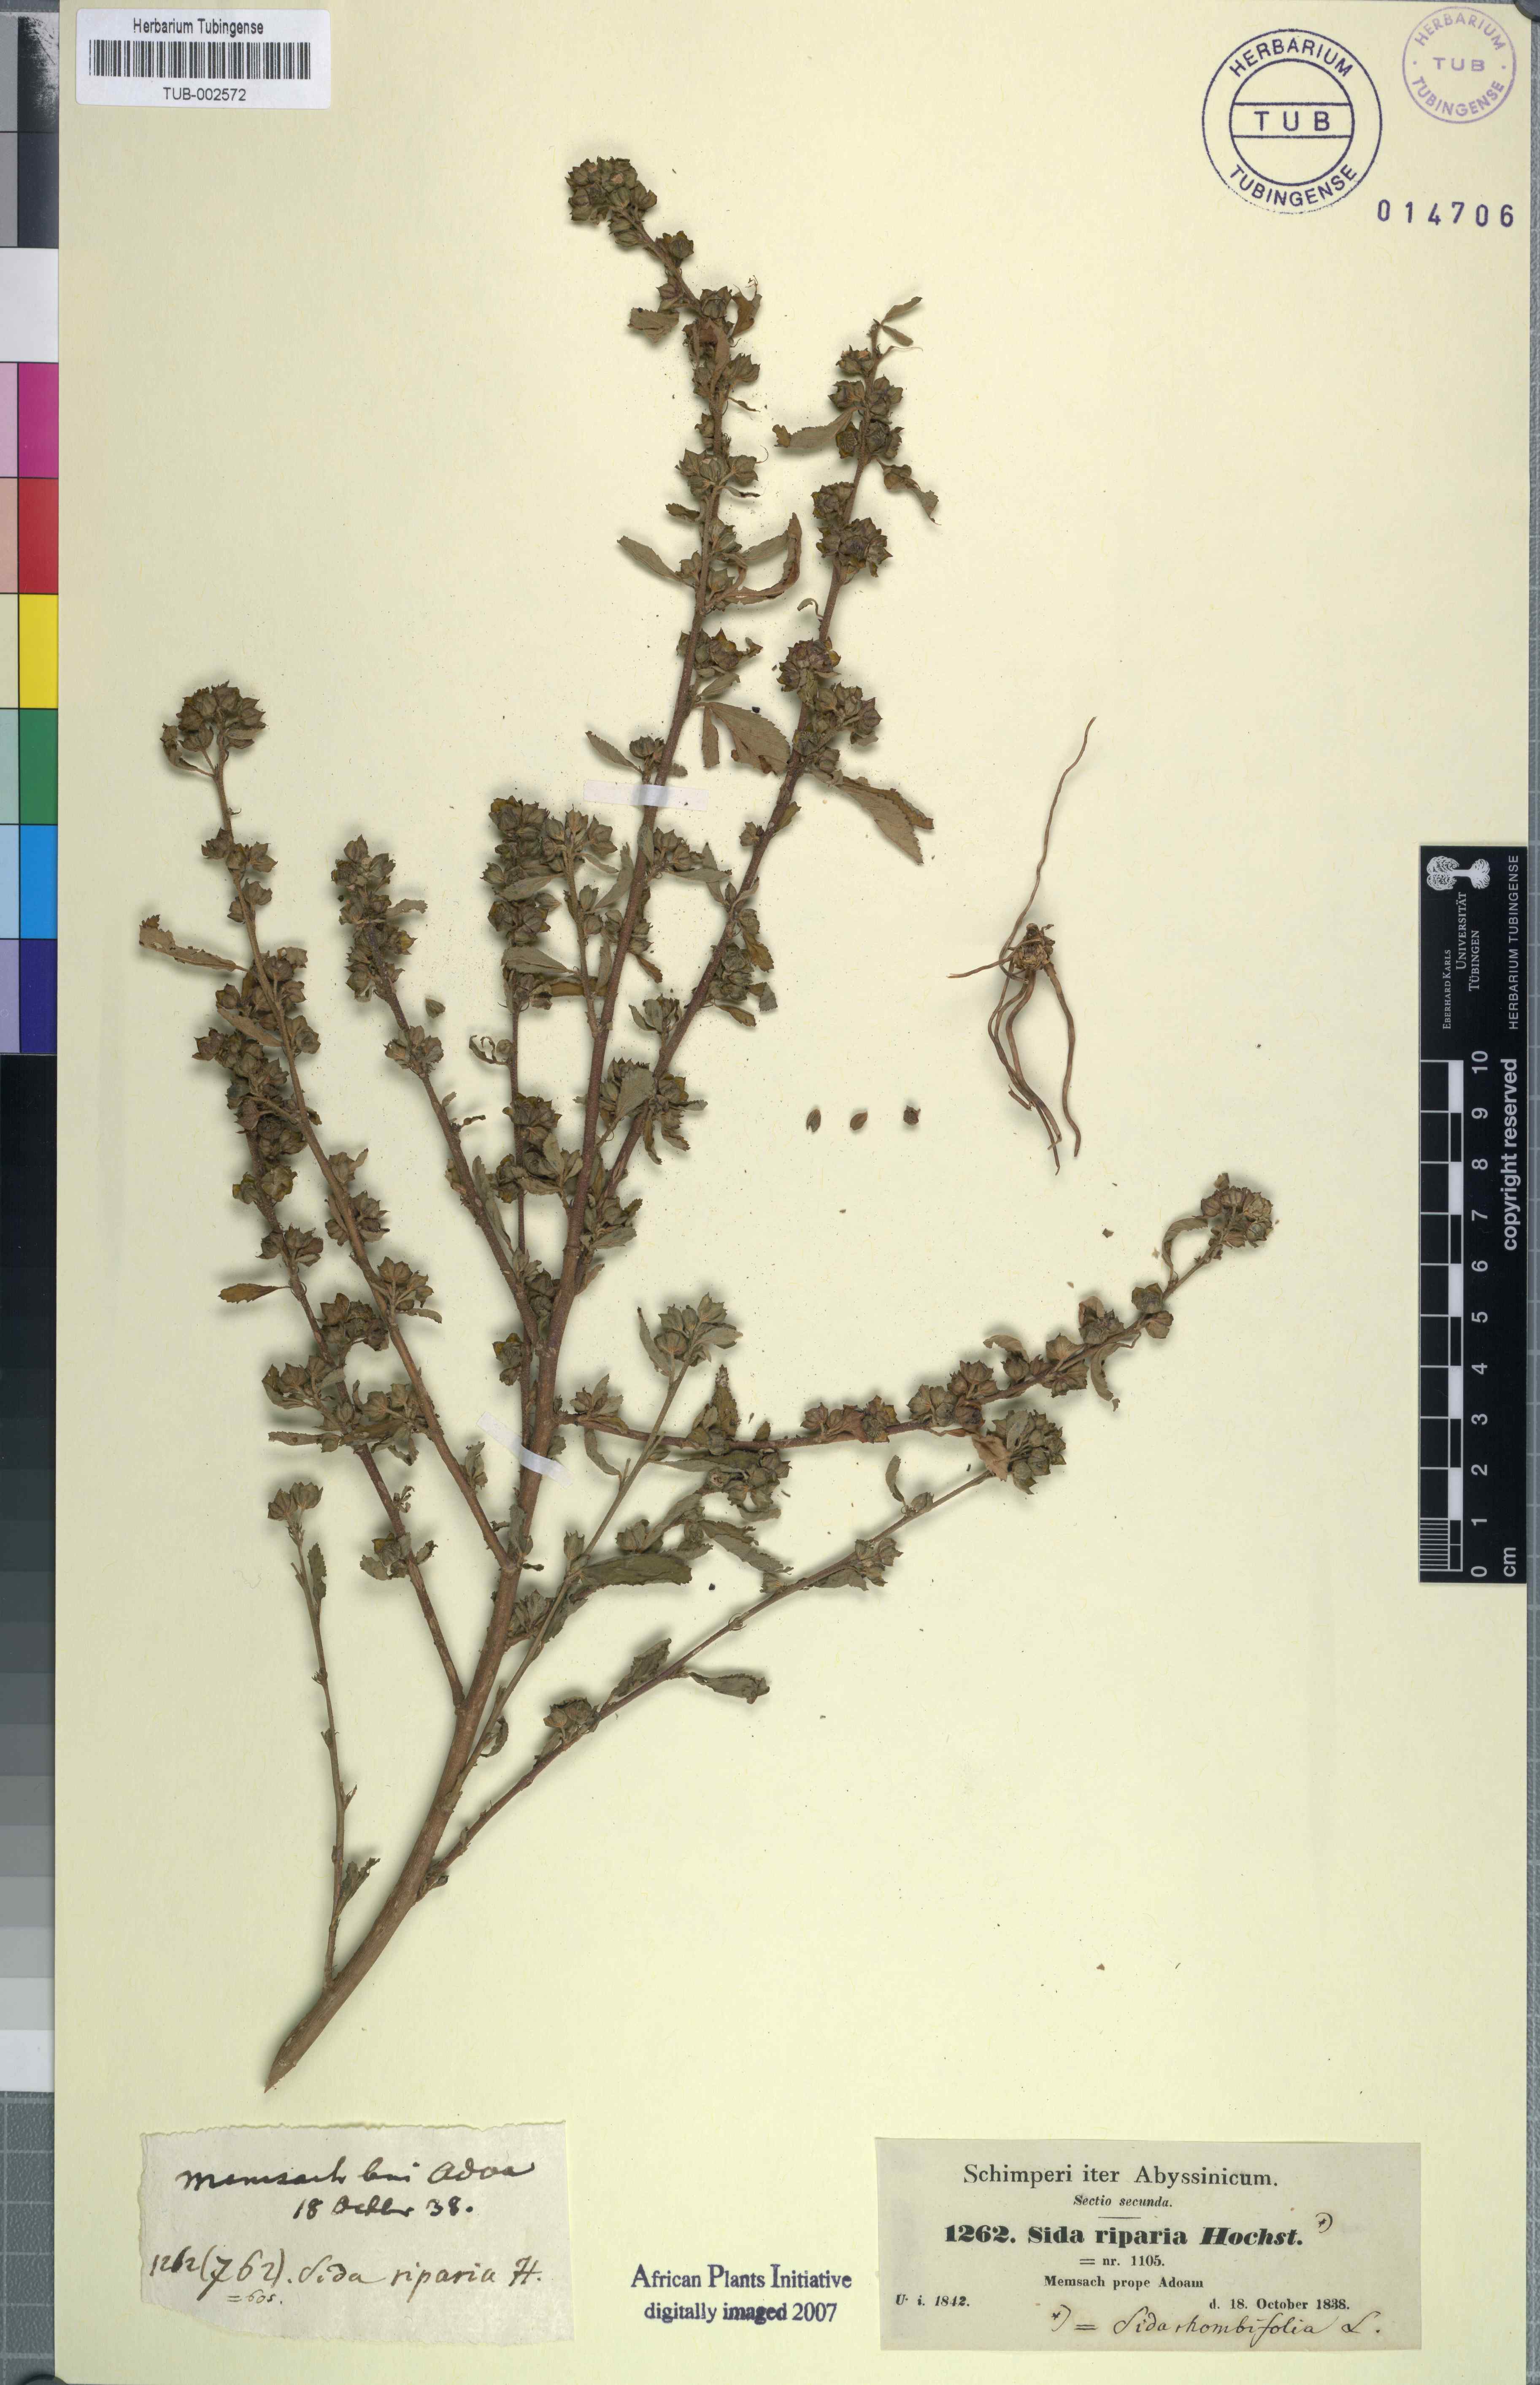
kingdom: Plantae
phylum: Tracheophyta
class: Magnoliopsida
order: Malvales
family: Malvaceae
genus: Sida
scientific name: Sida rhombifolia
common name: Queensland-hemp
